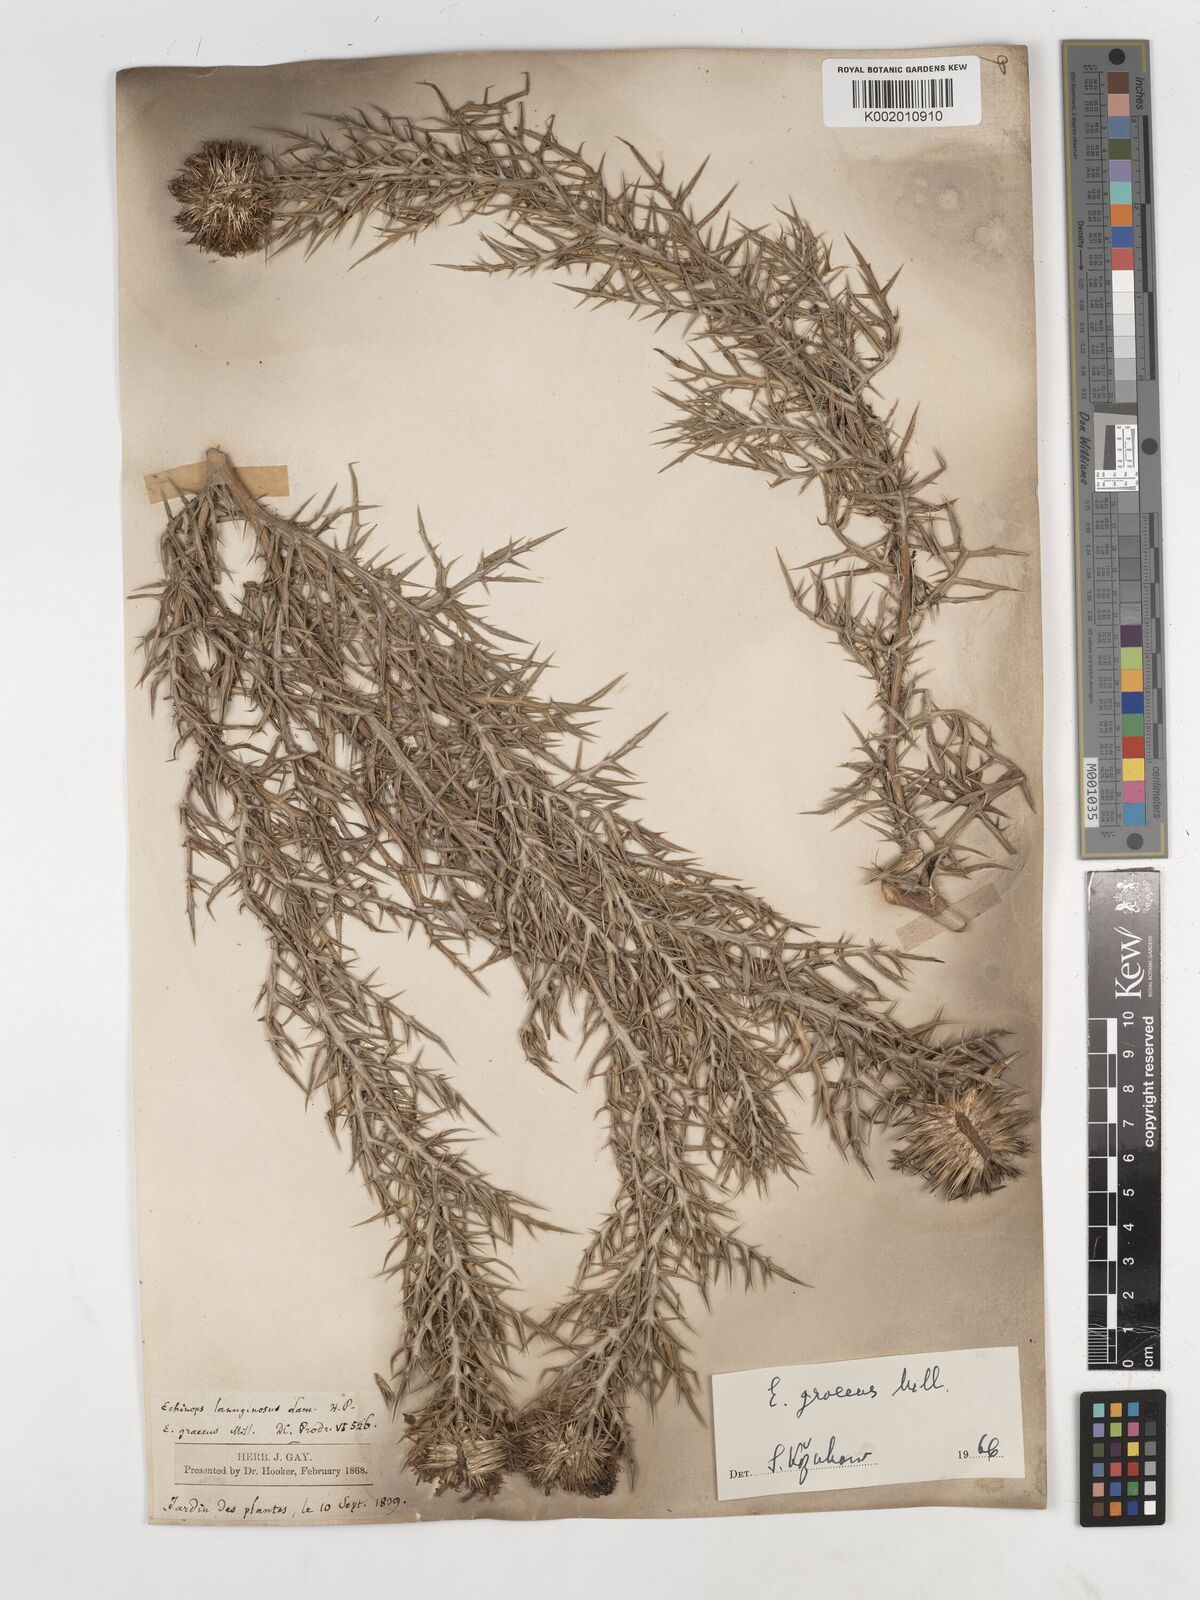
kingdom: Plantae
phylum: Tracheophyta
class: Magnoliopsida
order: Asterales
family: Asteraceae
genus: Echinops
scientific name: Echinops graecus
